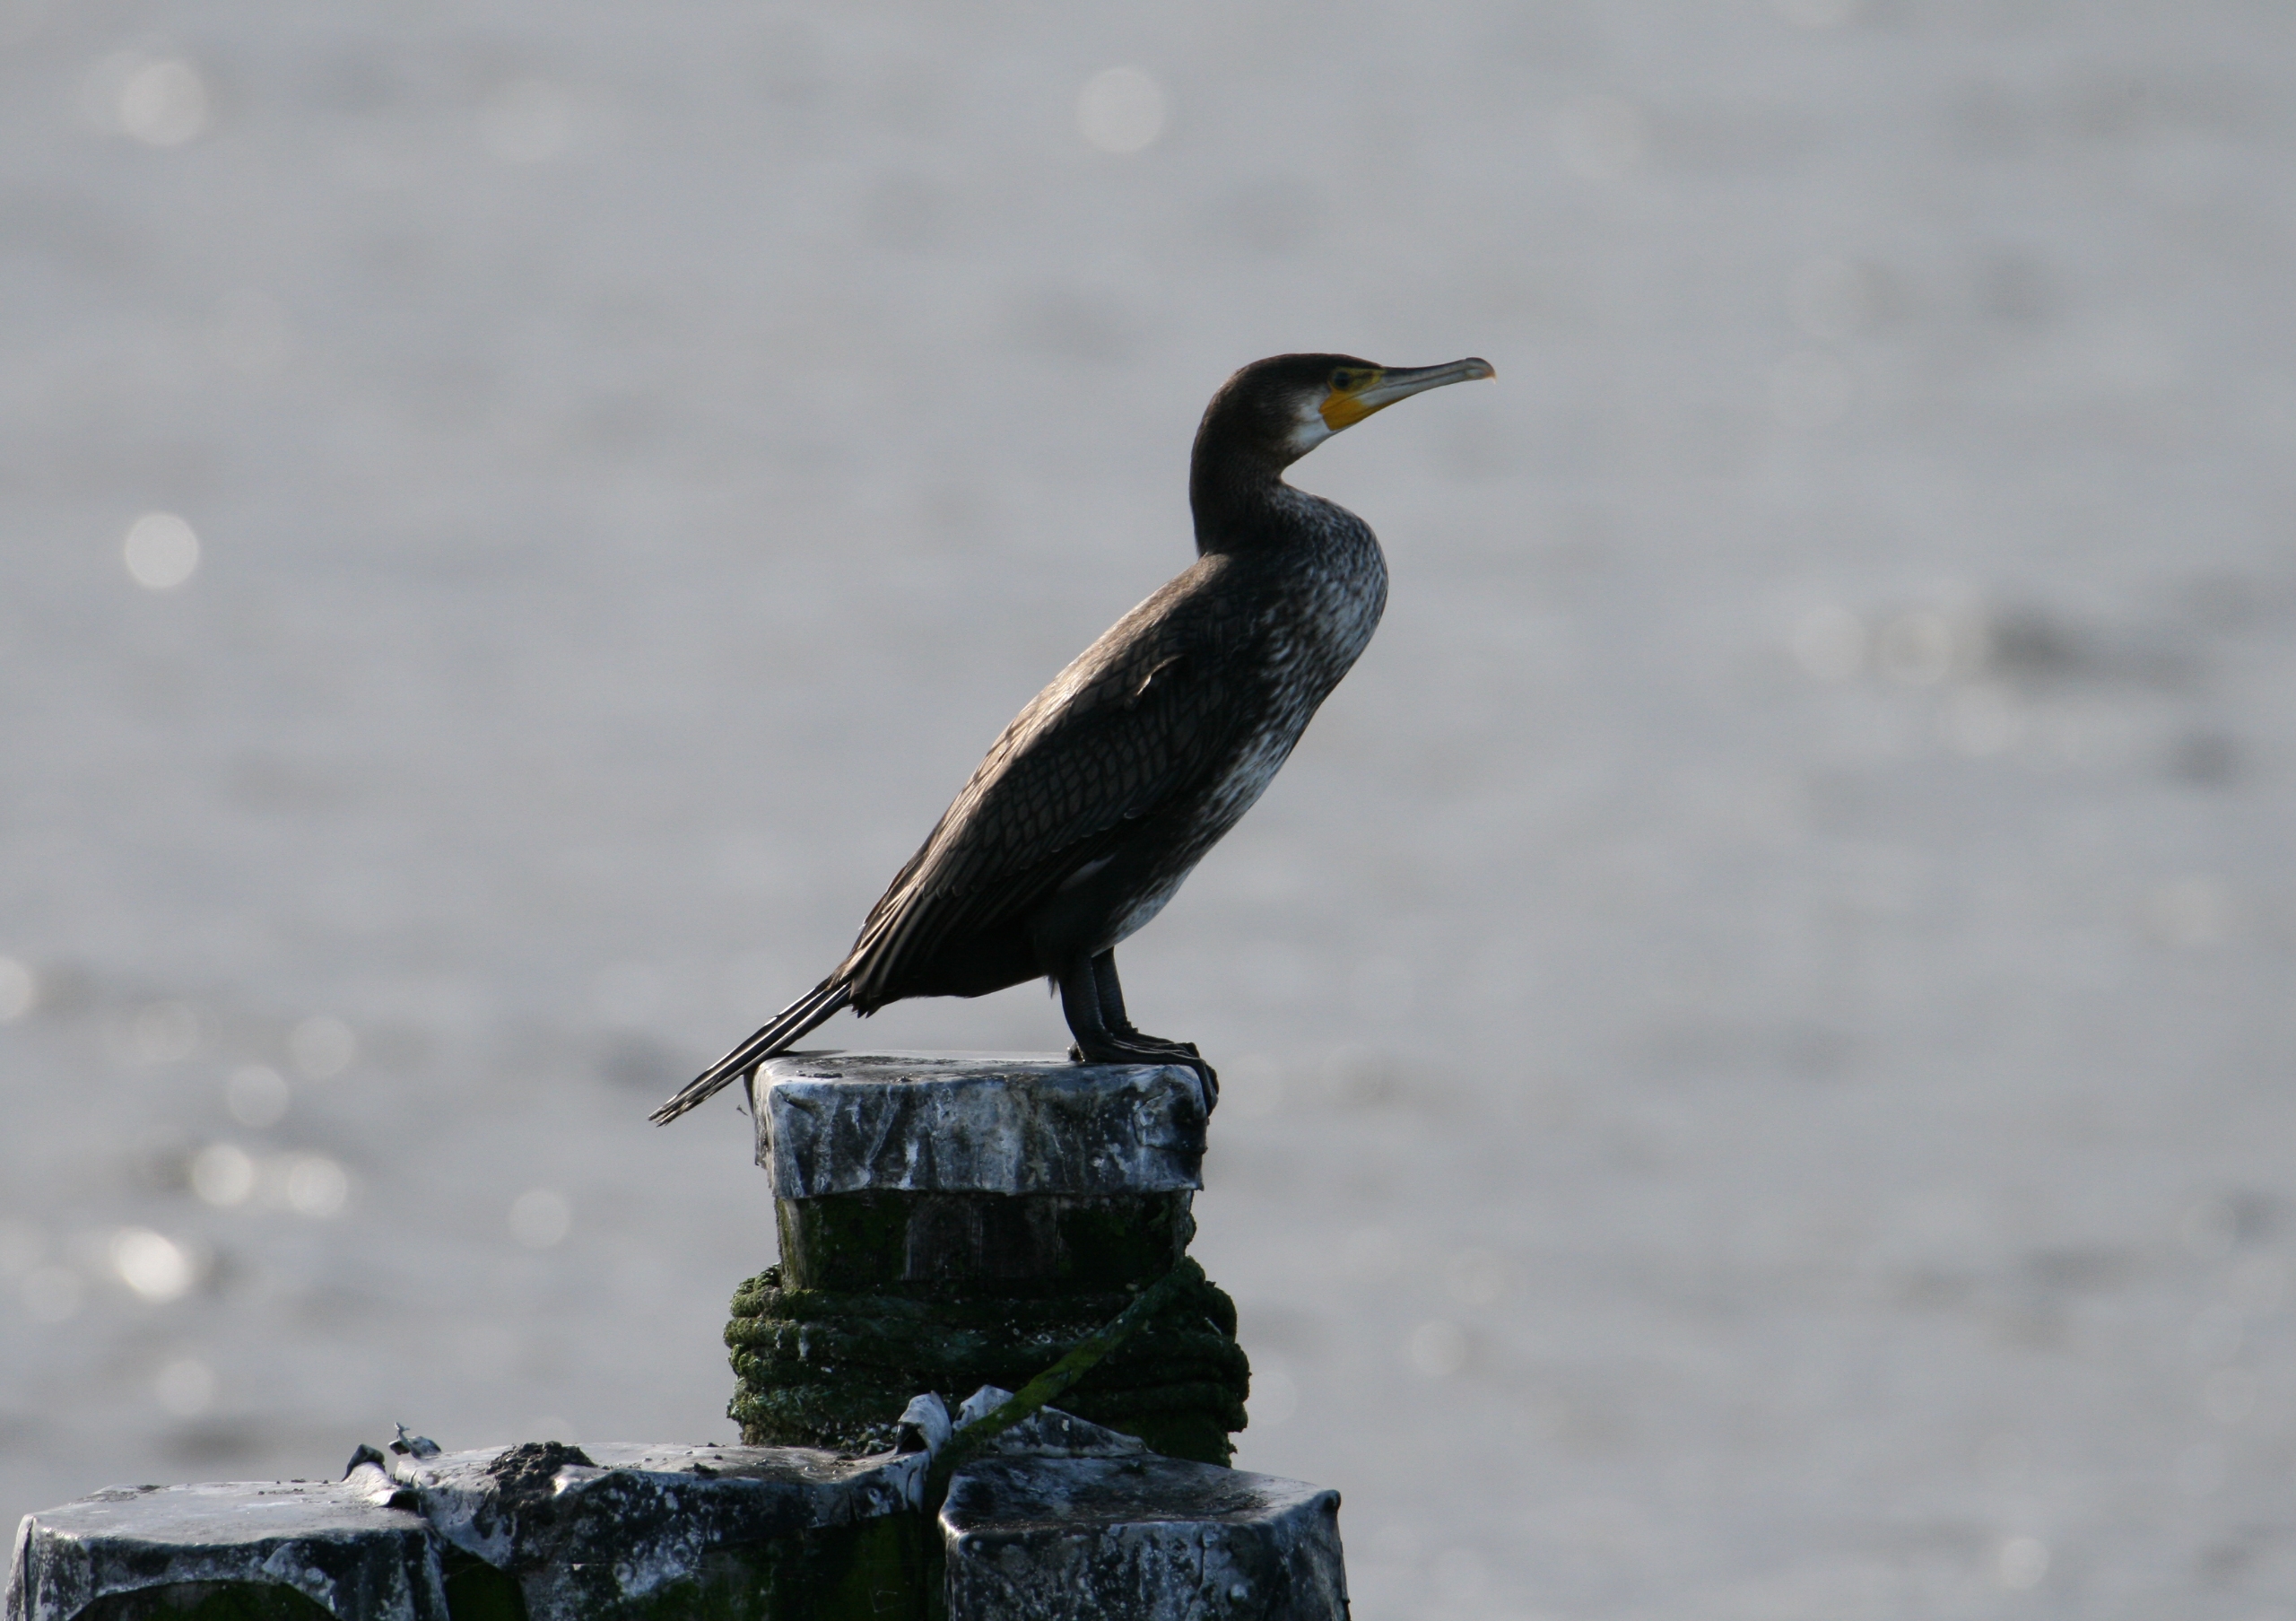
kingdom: Animalia
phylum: Chordata
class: Aves
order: Suliformes
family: Phalacrocoracidae
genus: Phalacrocorax
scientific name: Phalacrocorax carbo
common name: Skarv
